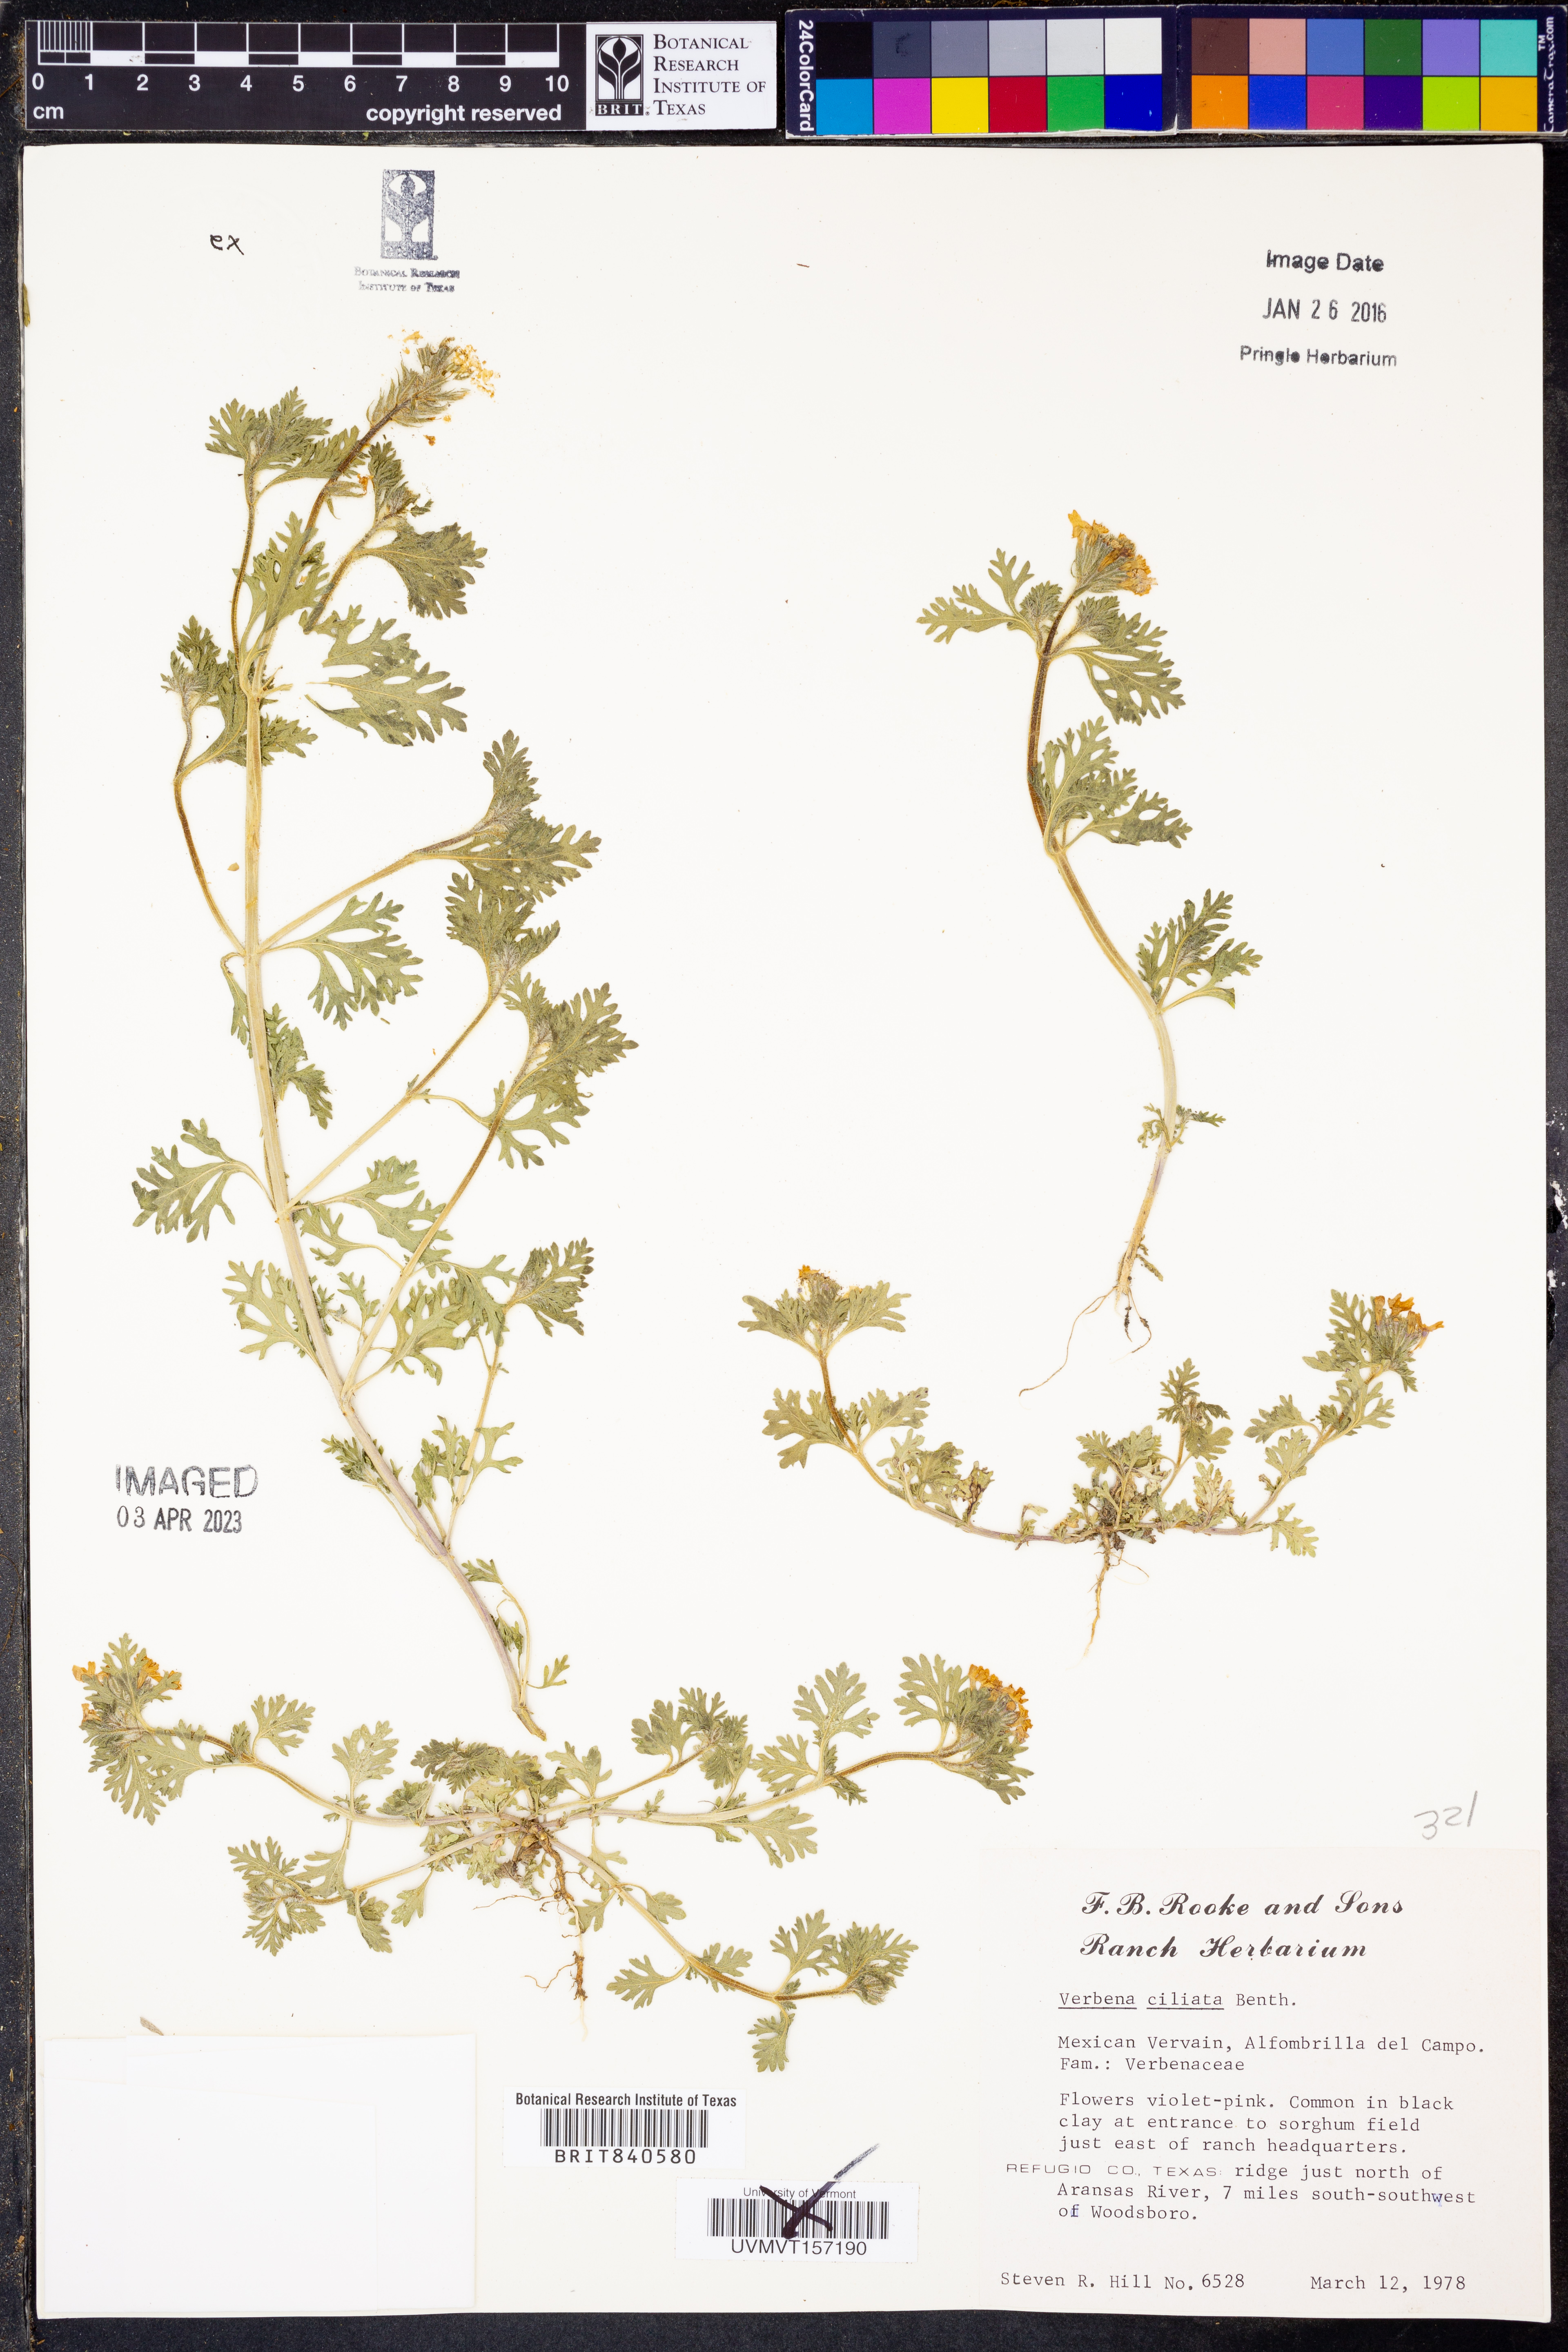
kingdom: Plantae
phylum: Tracheophyta
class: Magnoliopsida
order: Lamiales
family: Verbenaceae
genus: Verbena
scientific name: Verbena bipinnatifida
